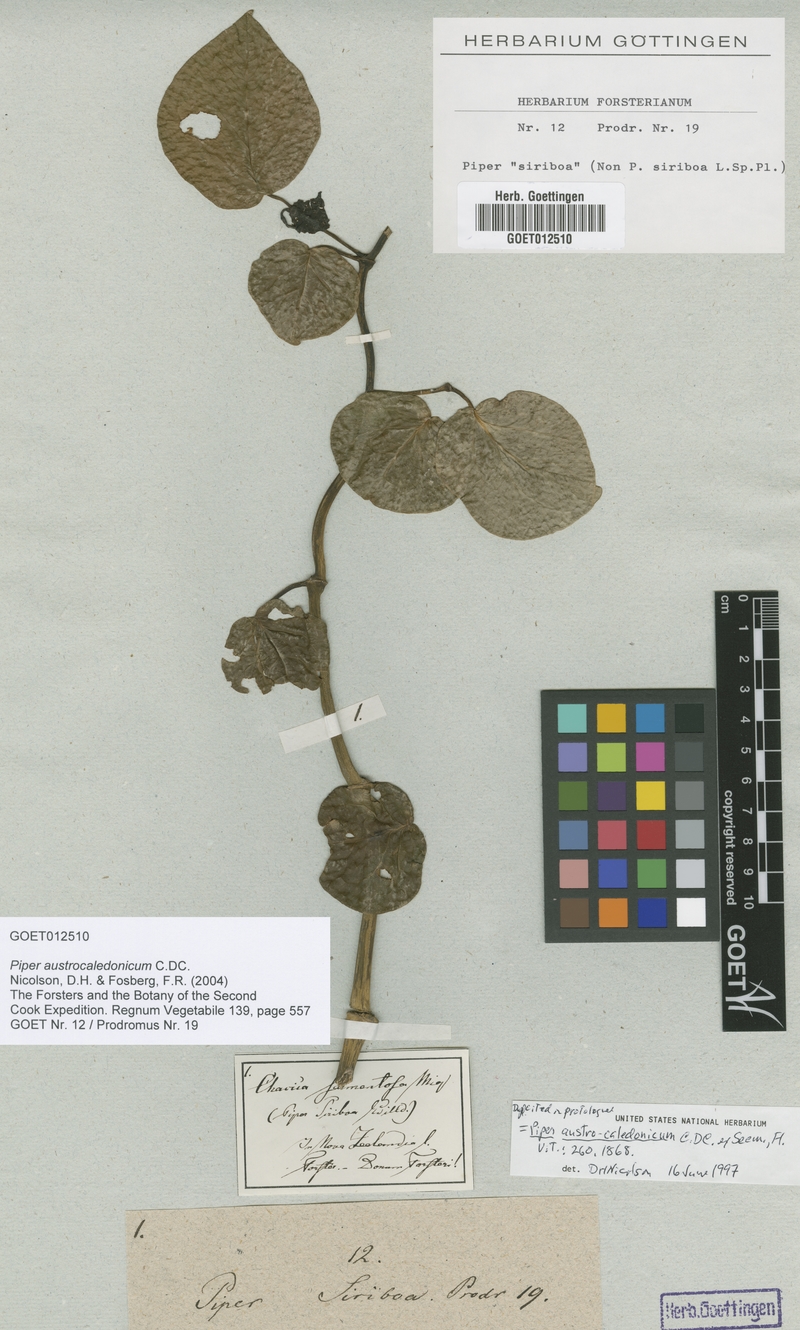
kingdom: Plantae
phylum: Tracheophyta
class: Magnoliopsida
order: Piperales
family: Piperaceae
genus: Piper
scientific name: Piper insectifugum
